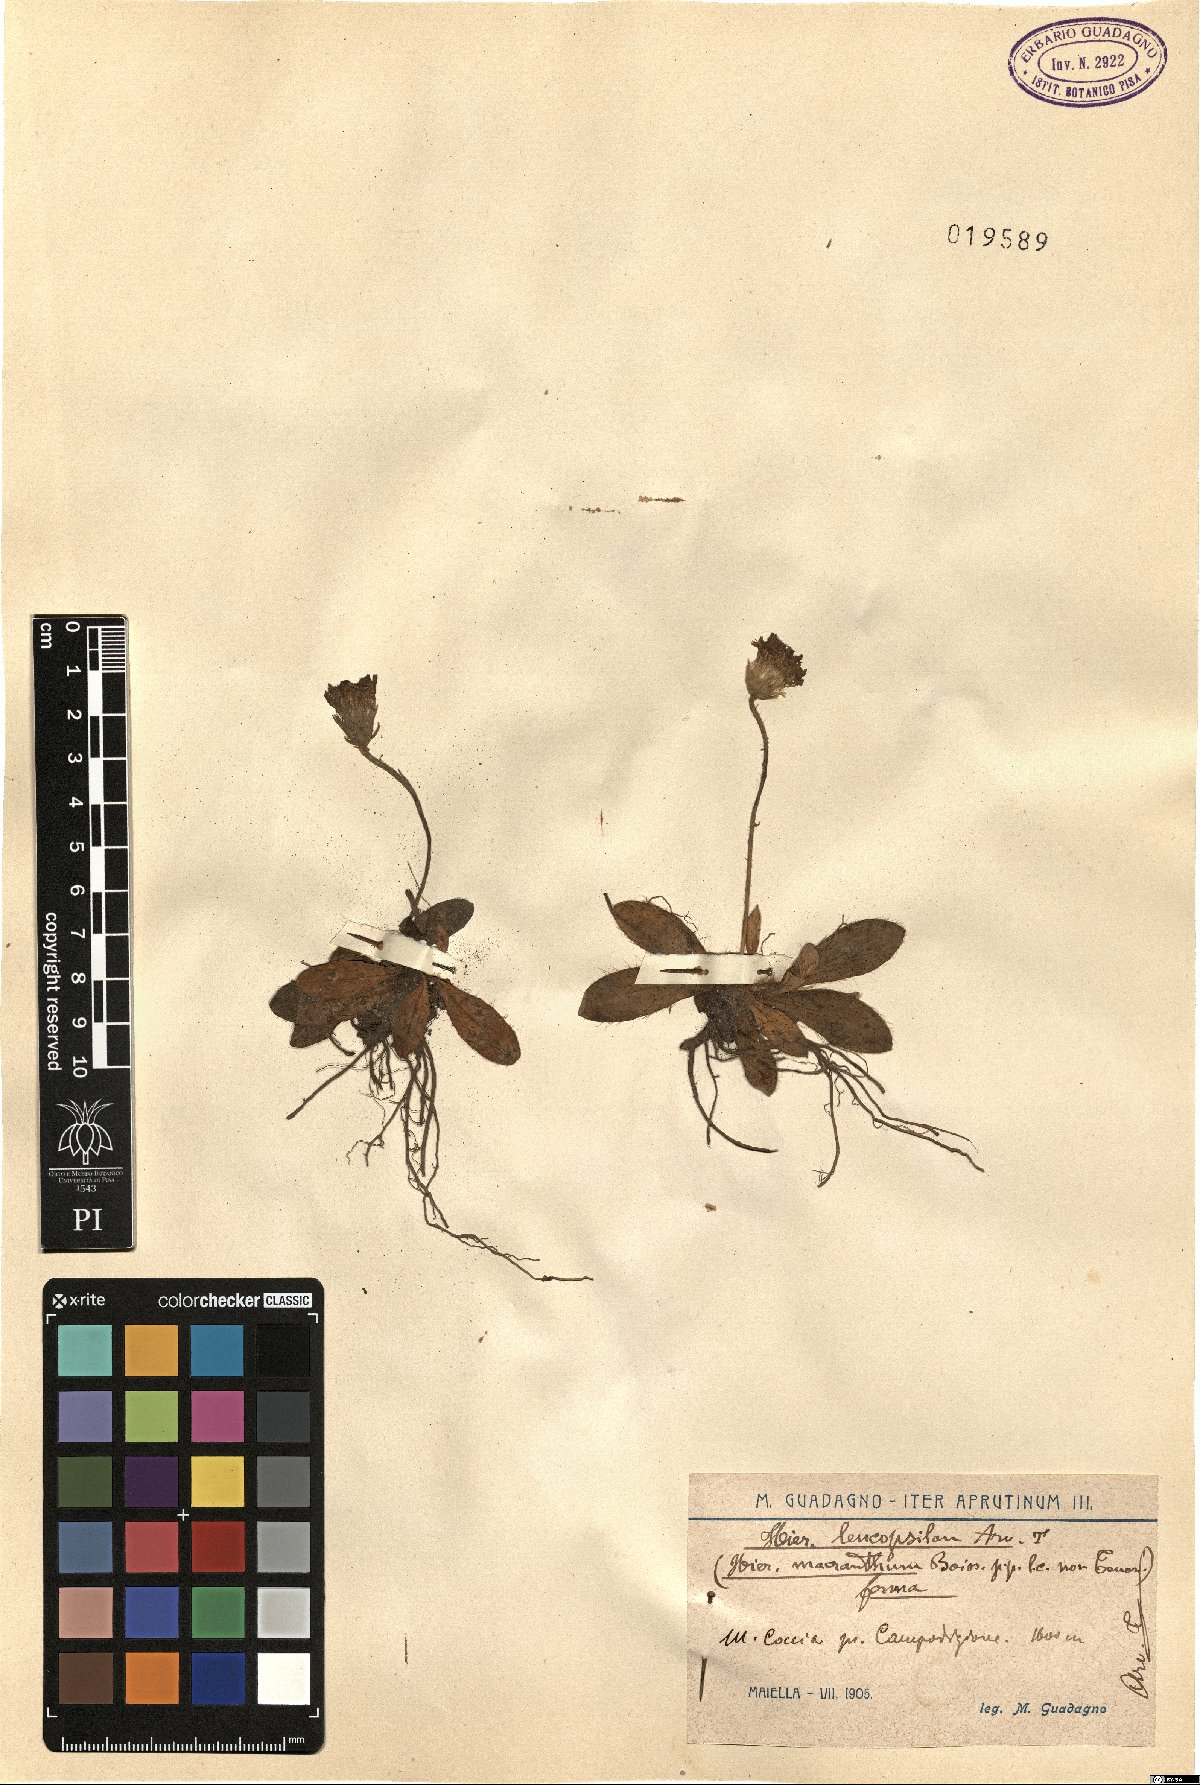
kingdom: Plantae
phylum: Tracheophyta
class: Magnoliopsida
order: Asterales
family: Asteraceae
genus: Pilosella
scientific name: Pilosella leucopsilon
